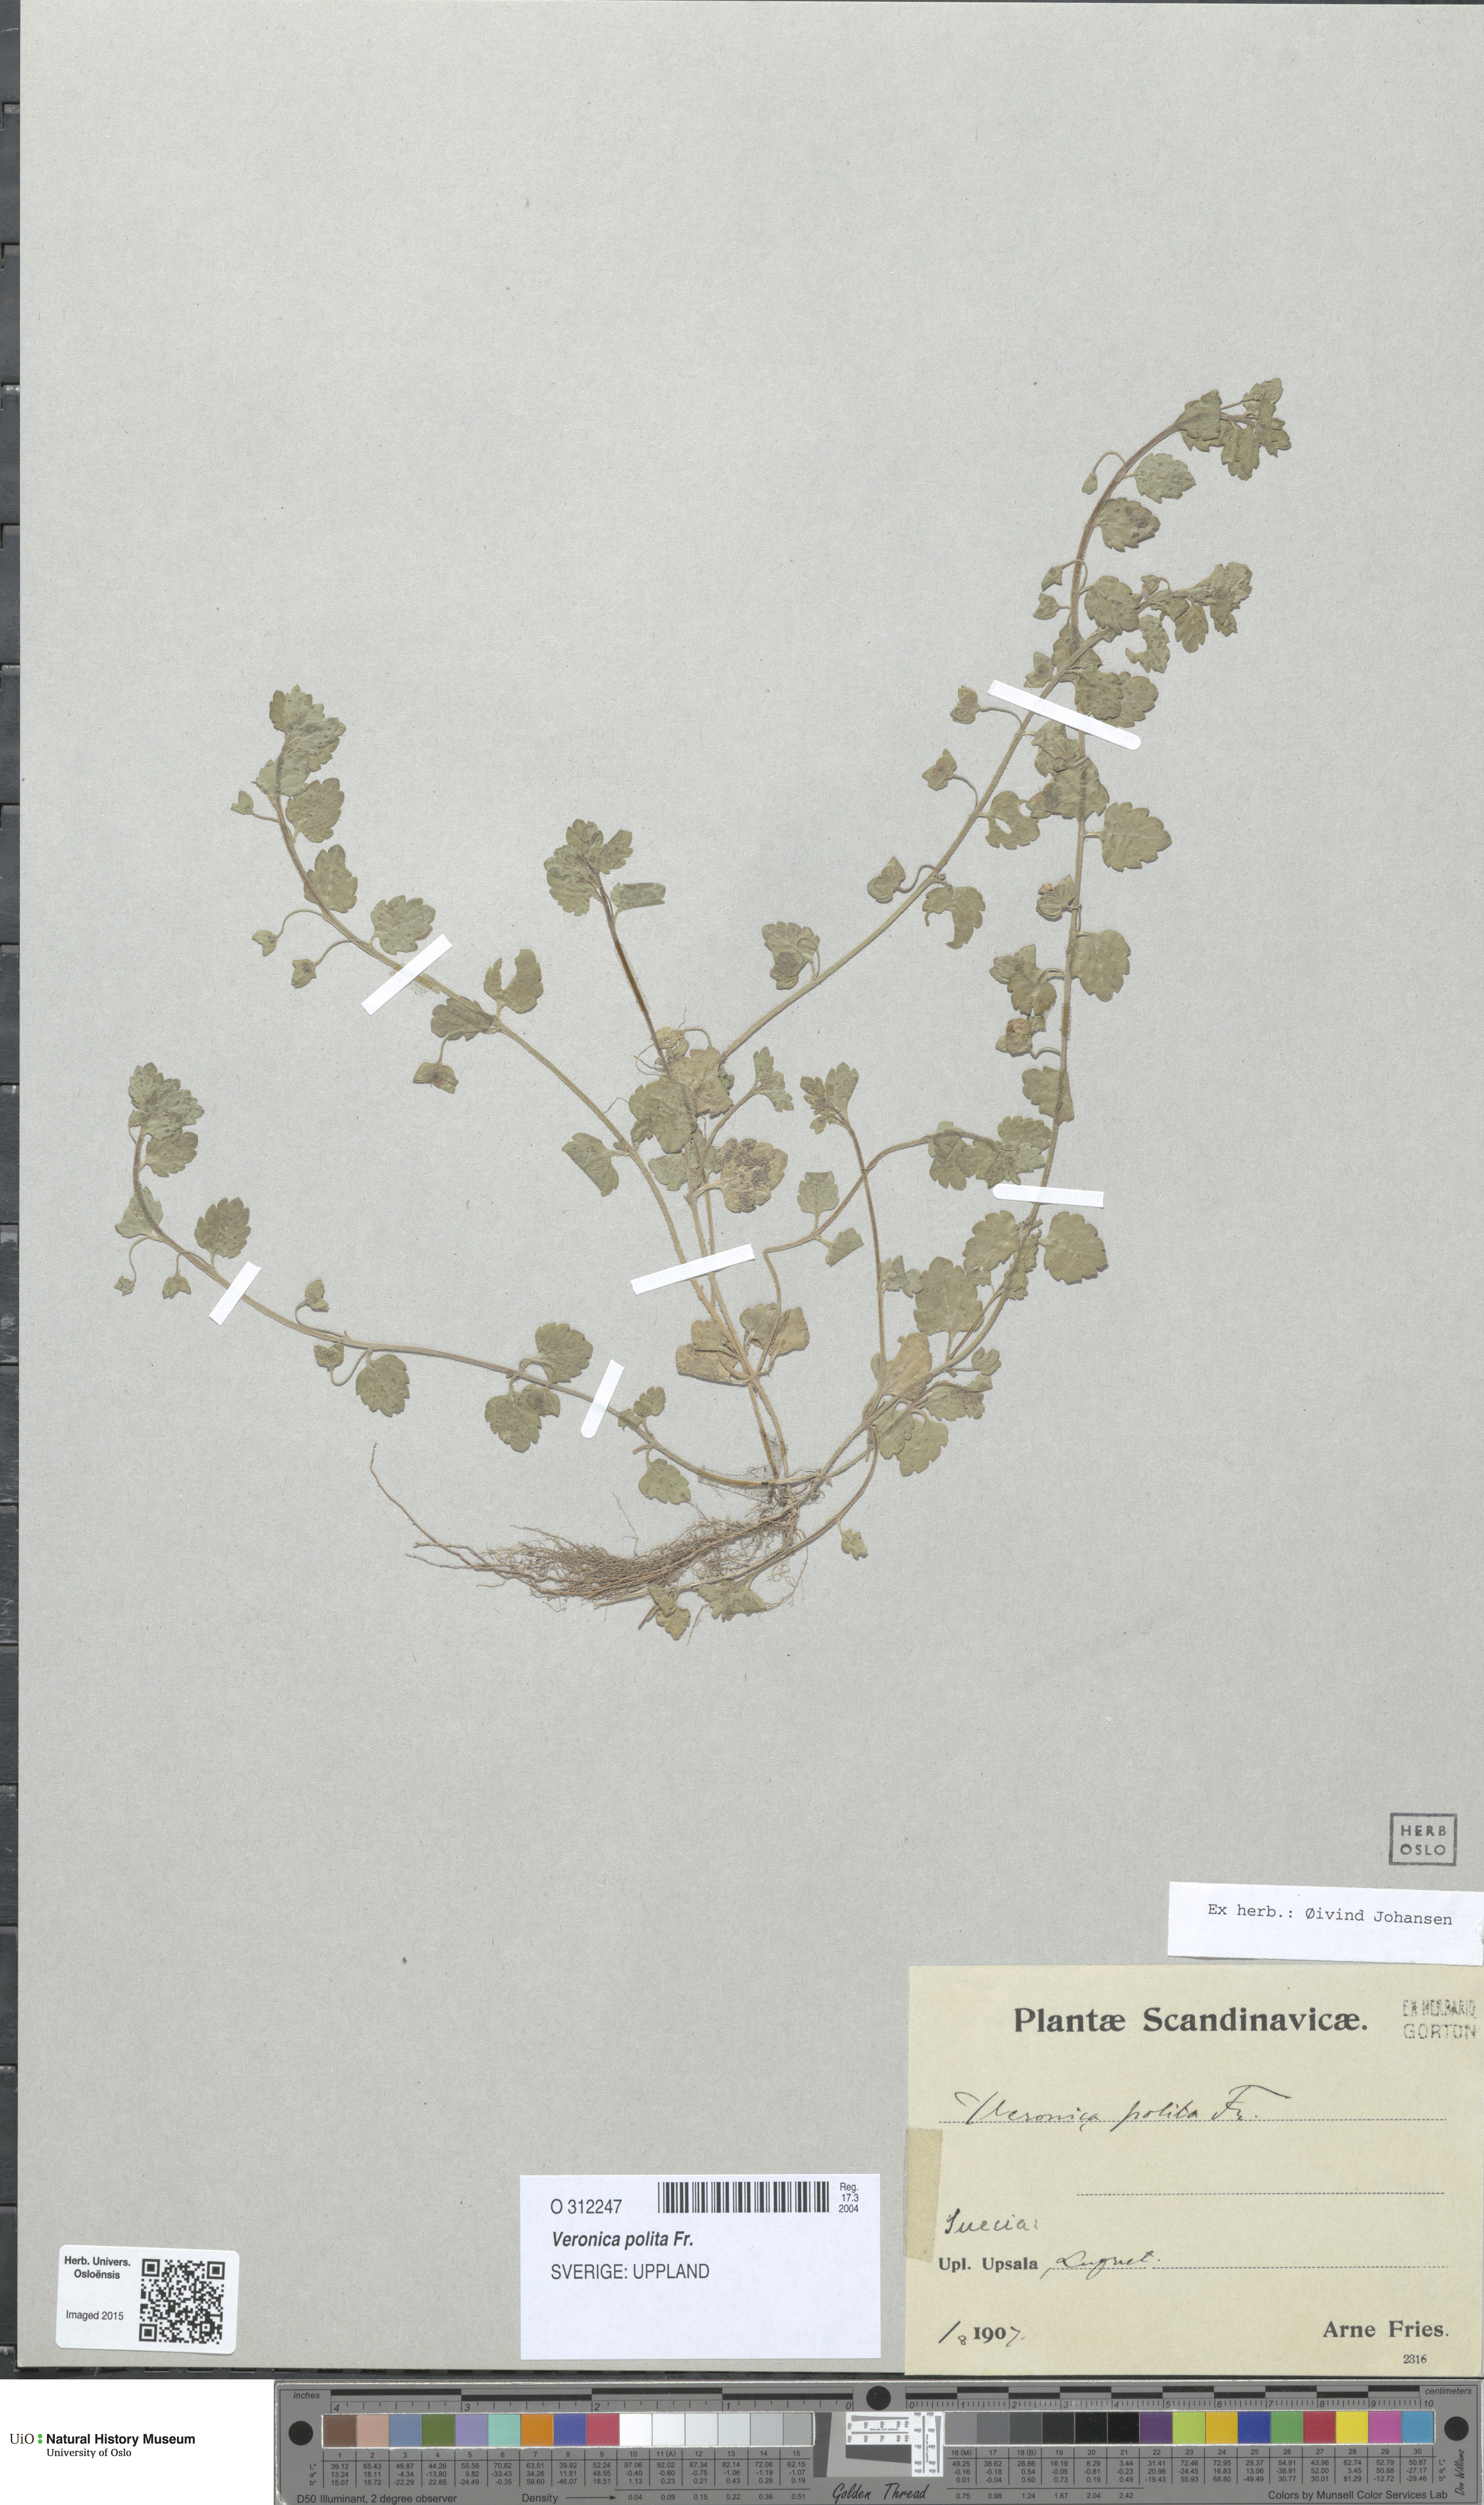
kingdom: Plantae
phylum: Tracheophyta
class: Magnoliopsida
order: Lamiales
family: Plantaginaceae
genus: Veronica
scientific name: Veronica polita
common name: Grey field-speedwell
